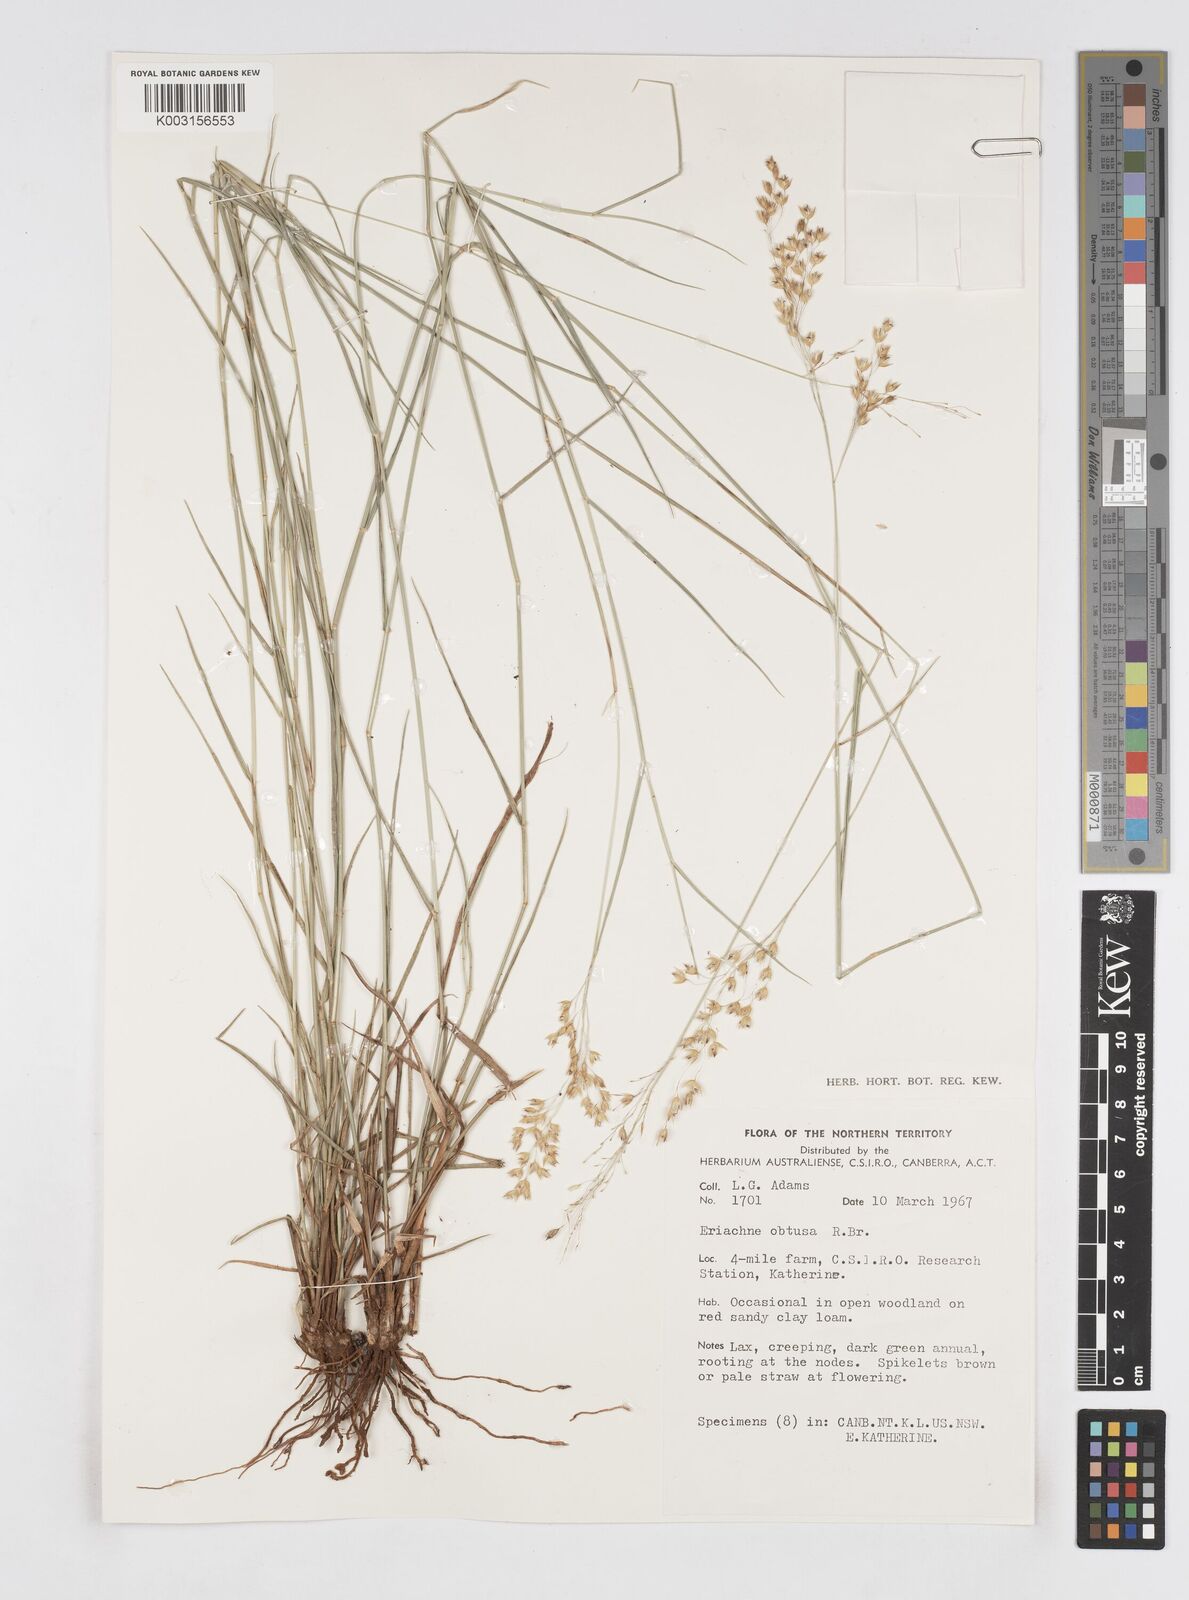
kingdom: Plantae
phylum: Tracheophyta
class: Liliopsida
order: Poales
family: Poaceae
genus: Eriachne
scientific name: Eriachne obtusa
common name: Northern wanderrie grass
